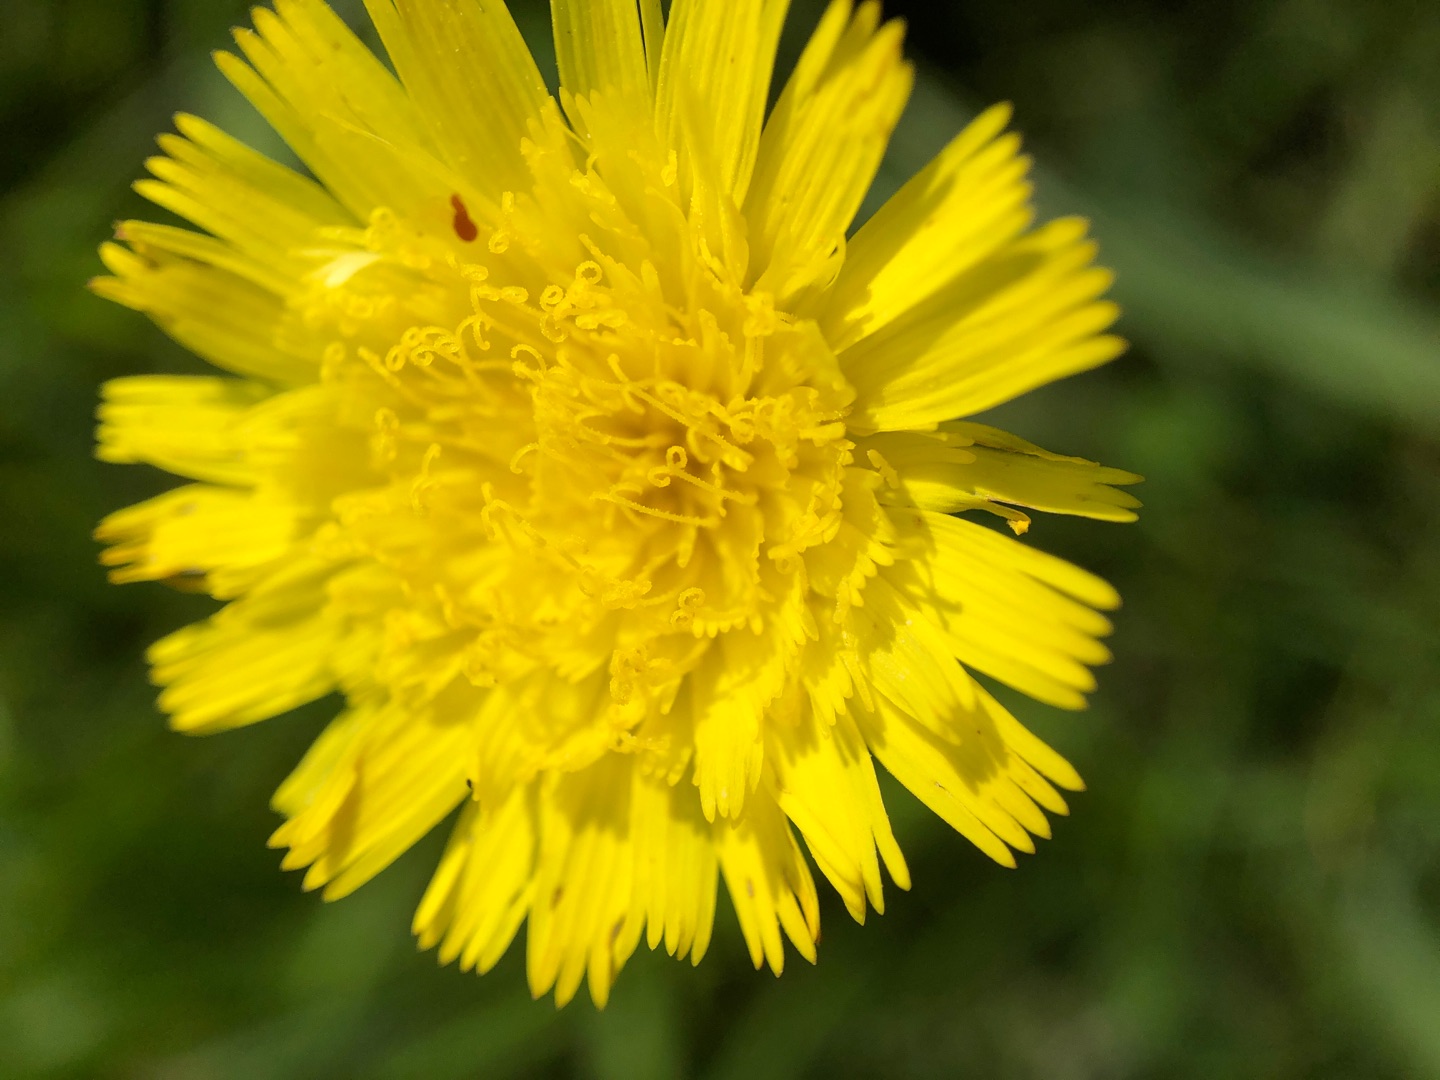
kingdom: Plantae
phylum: Tracheophyta
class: Magnoliopsida
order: Asterales
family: Asteraceae
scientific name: Asteraceae
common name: Kurvblomstfamilien
